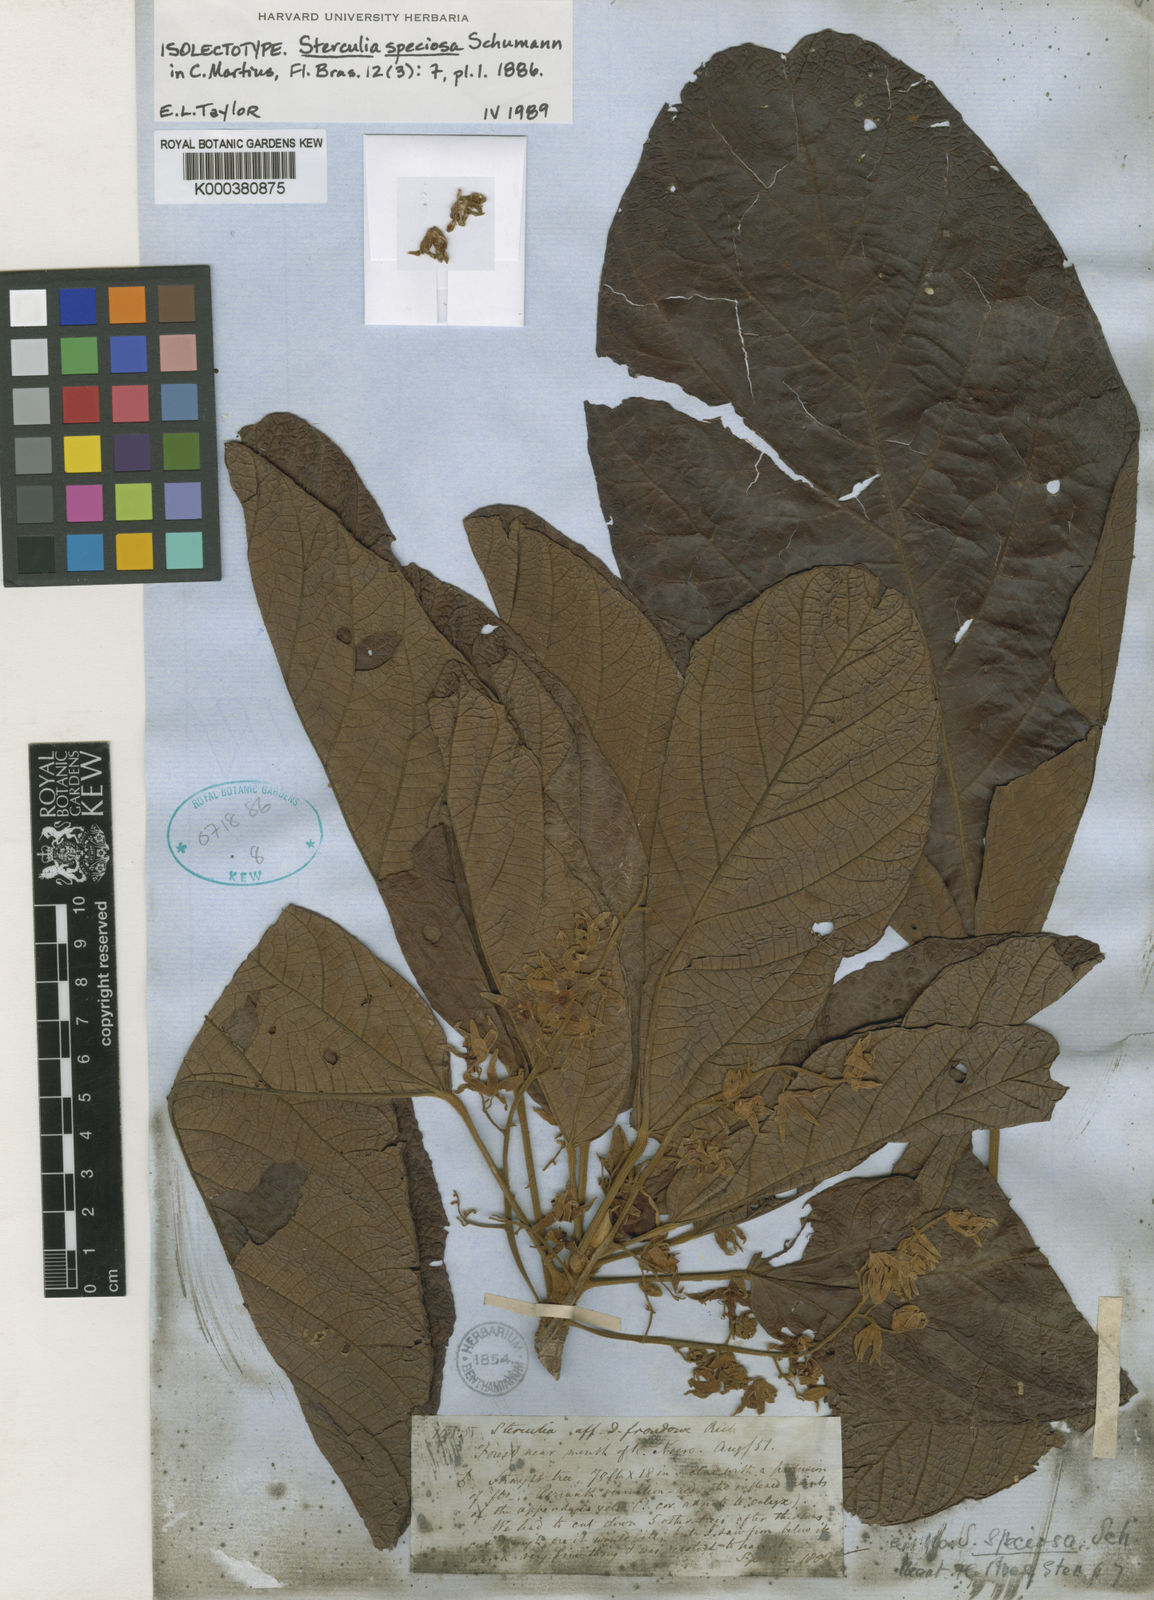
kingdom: Plantae
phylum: Tracheophyta
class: Magnoliopsida
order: Malvales
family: Malvaceae
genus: Sterculia
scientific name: Sterculia speciosa
